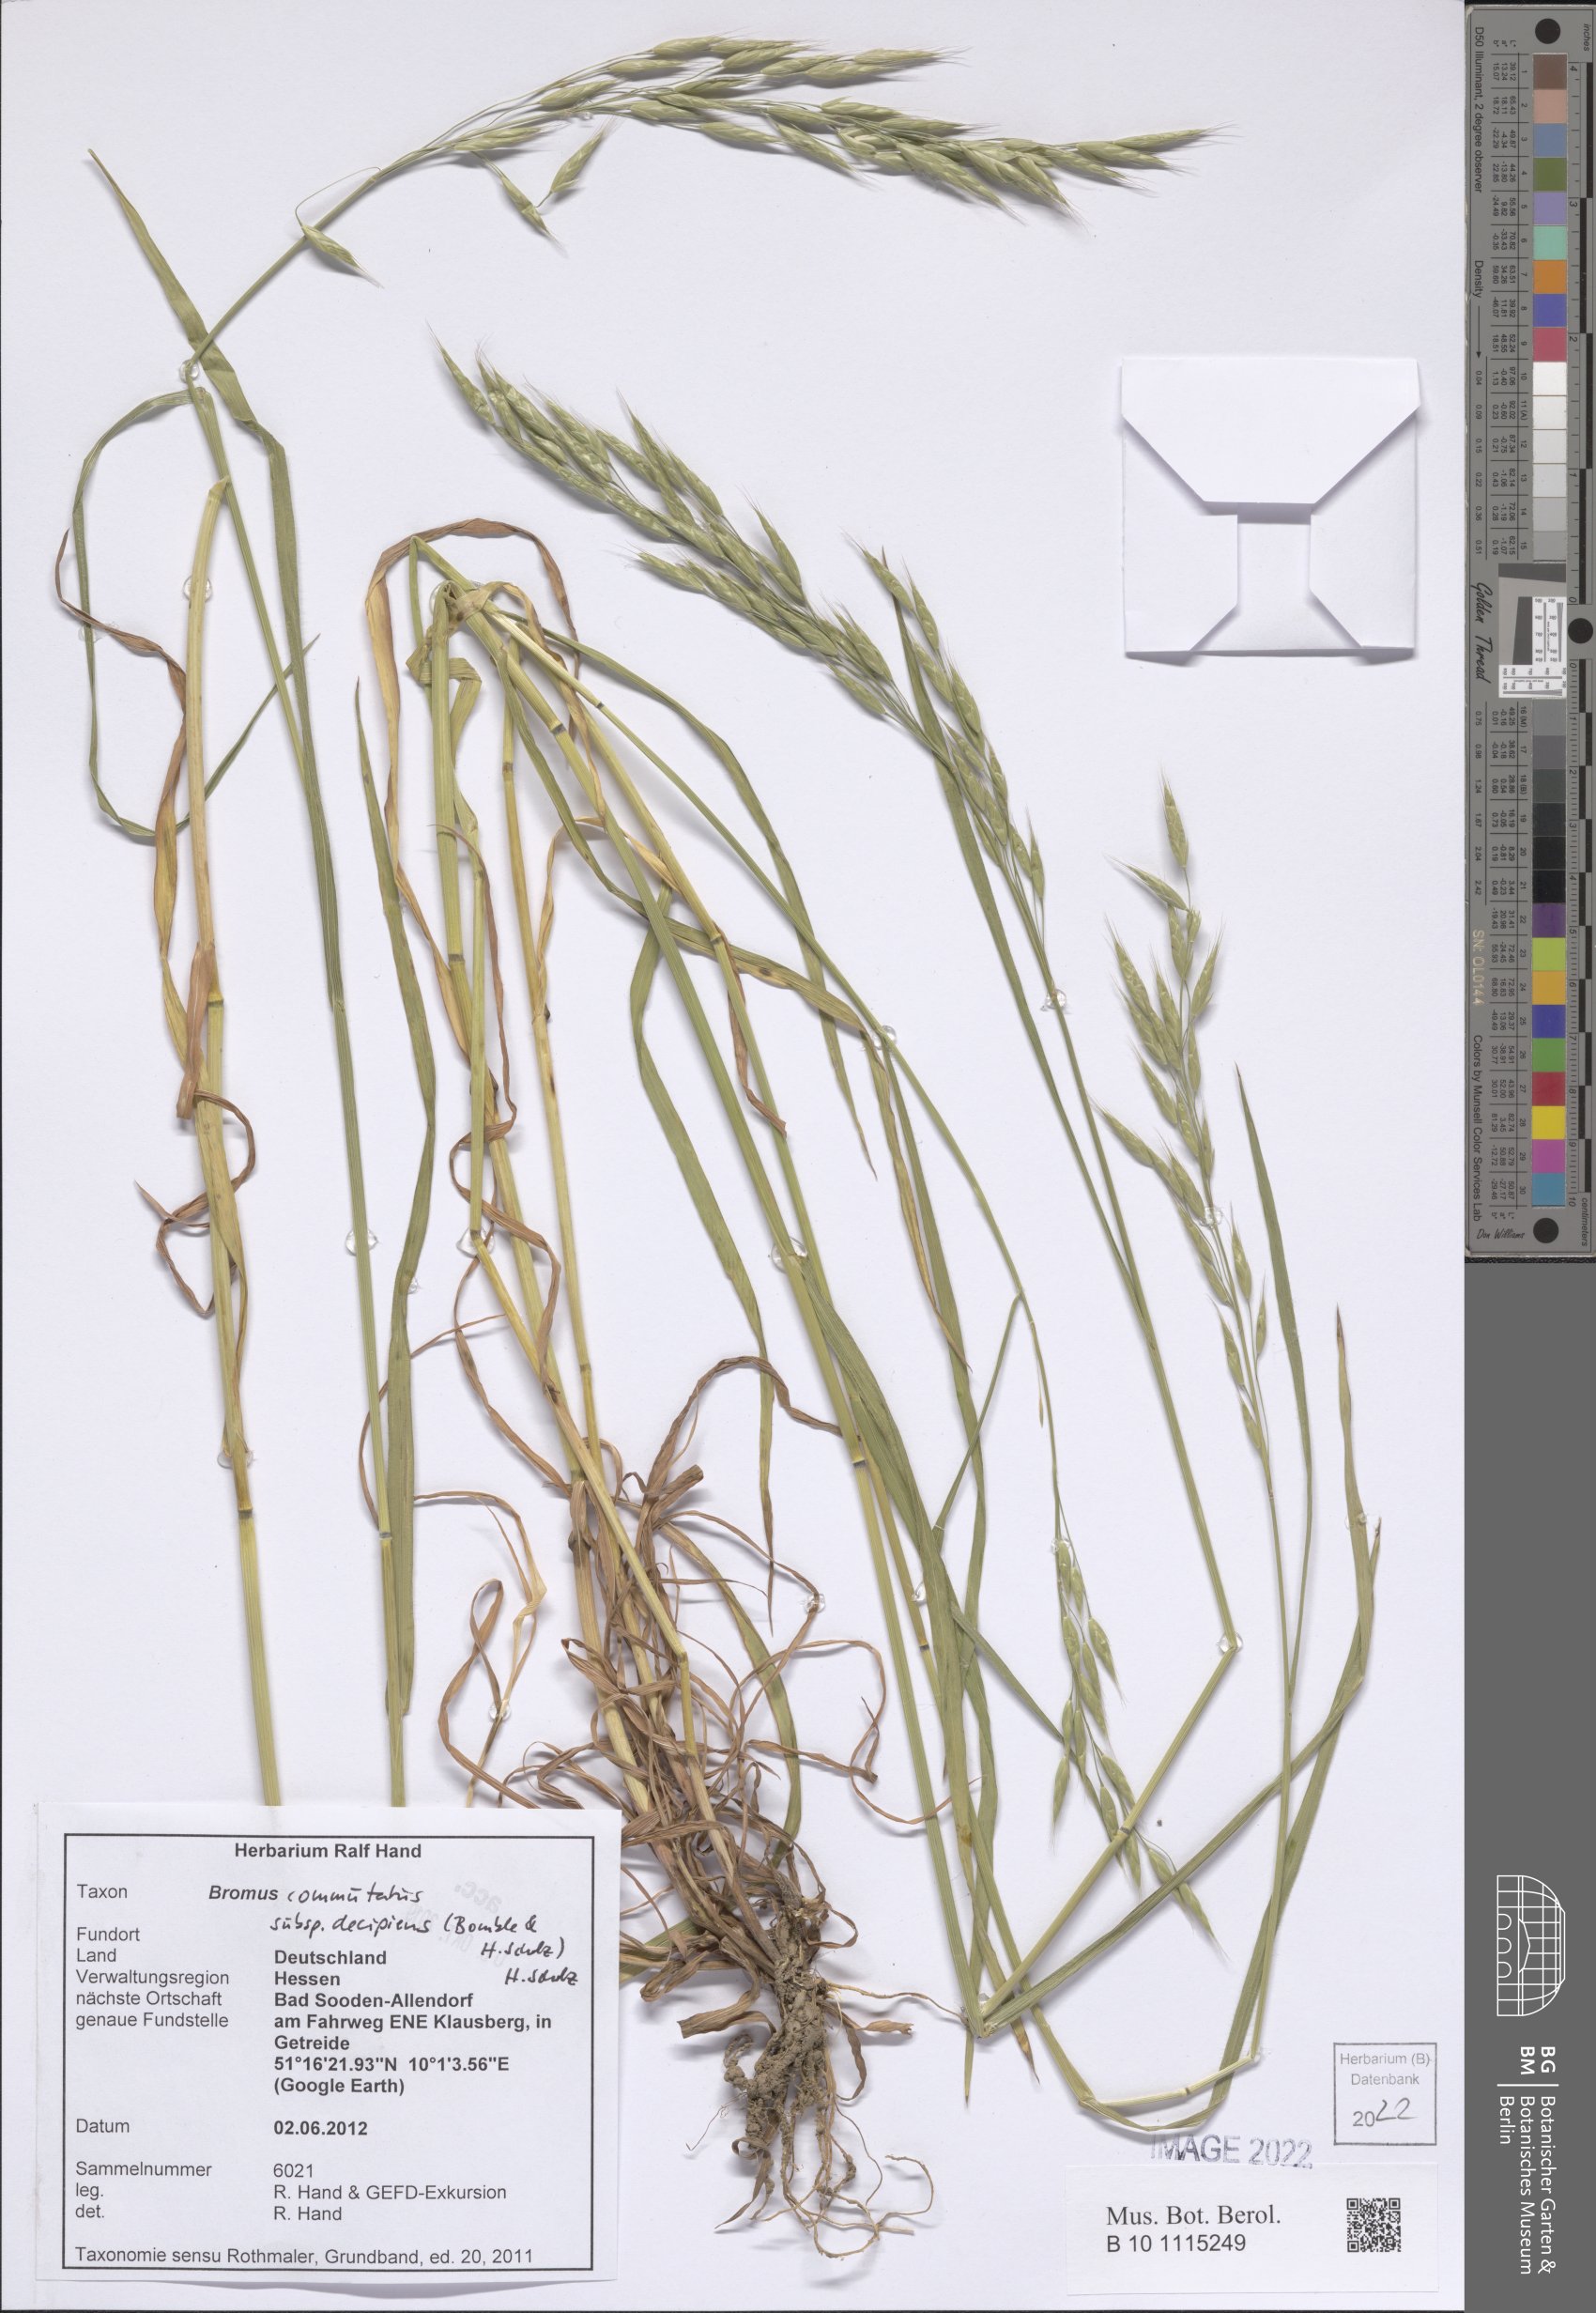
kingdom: Plantae
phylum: Tracheophyta
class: Liliopsida
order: Poales
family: Poaceae
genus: Bromus
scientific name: Bromus commutatus
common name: Meadow brome
